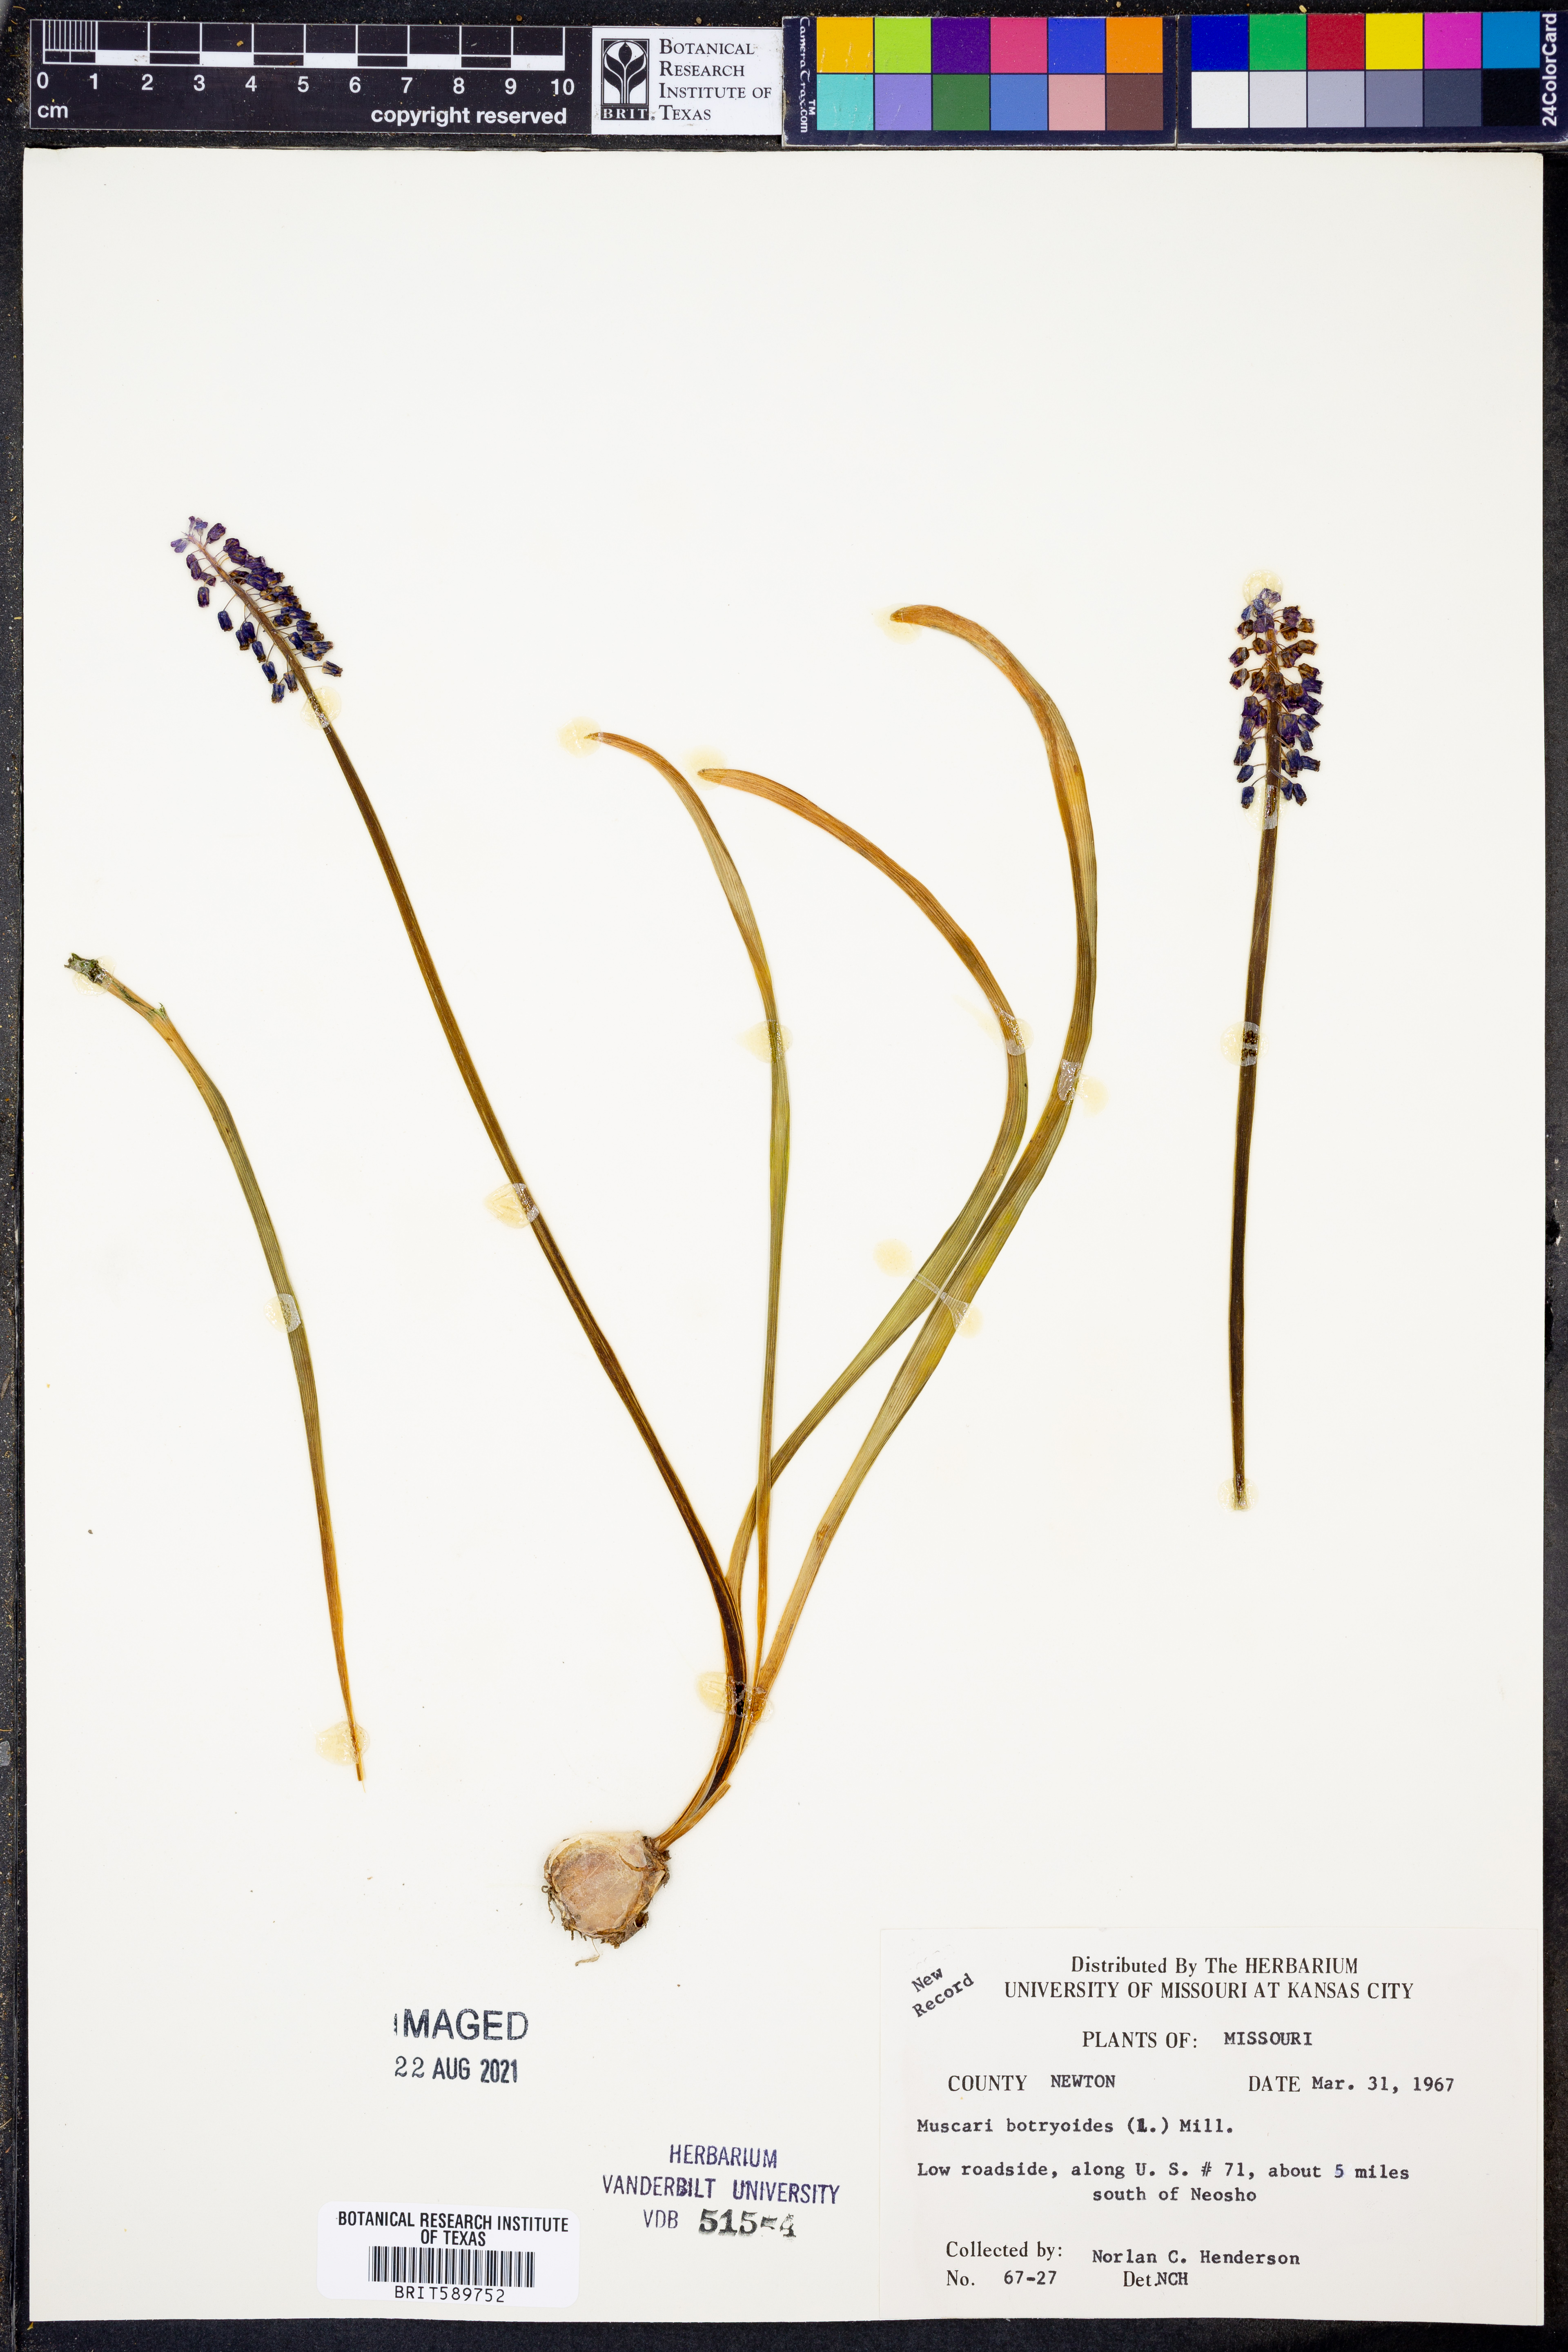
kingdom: Plantae
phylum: Tracheophyta
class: Liliopsida
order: Asparagales
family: Asparagaceae
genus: Muscari
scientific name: Muscari botryoides
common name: Compact grape-hyacinth
